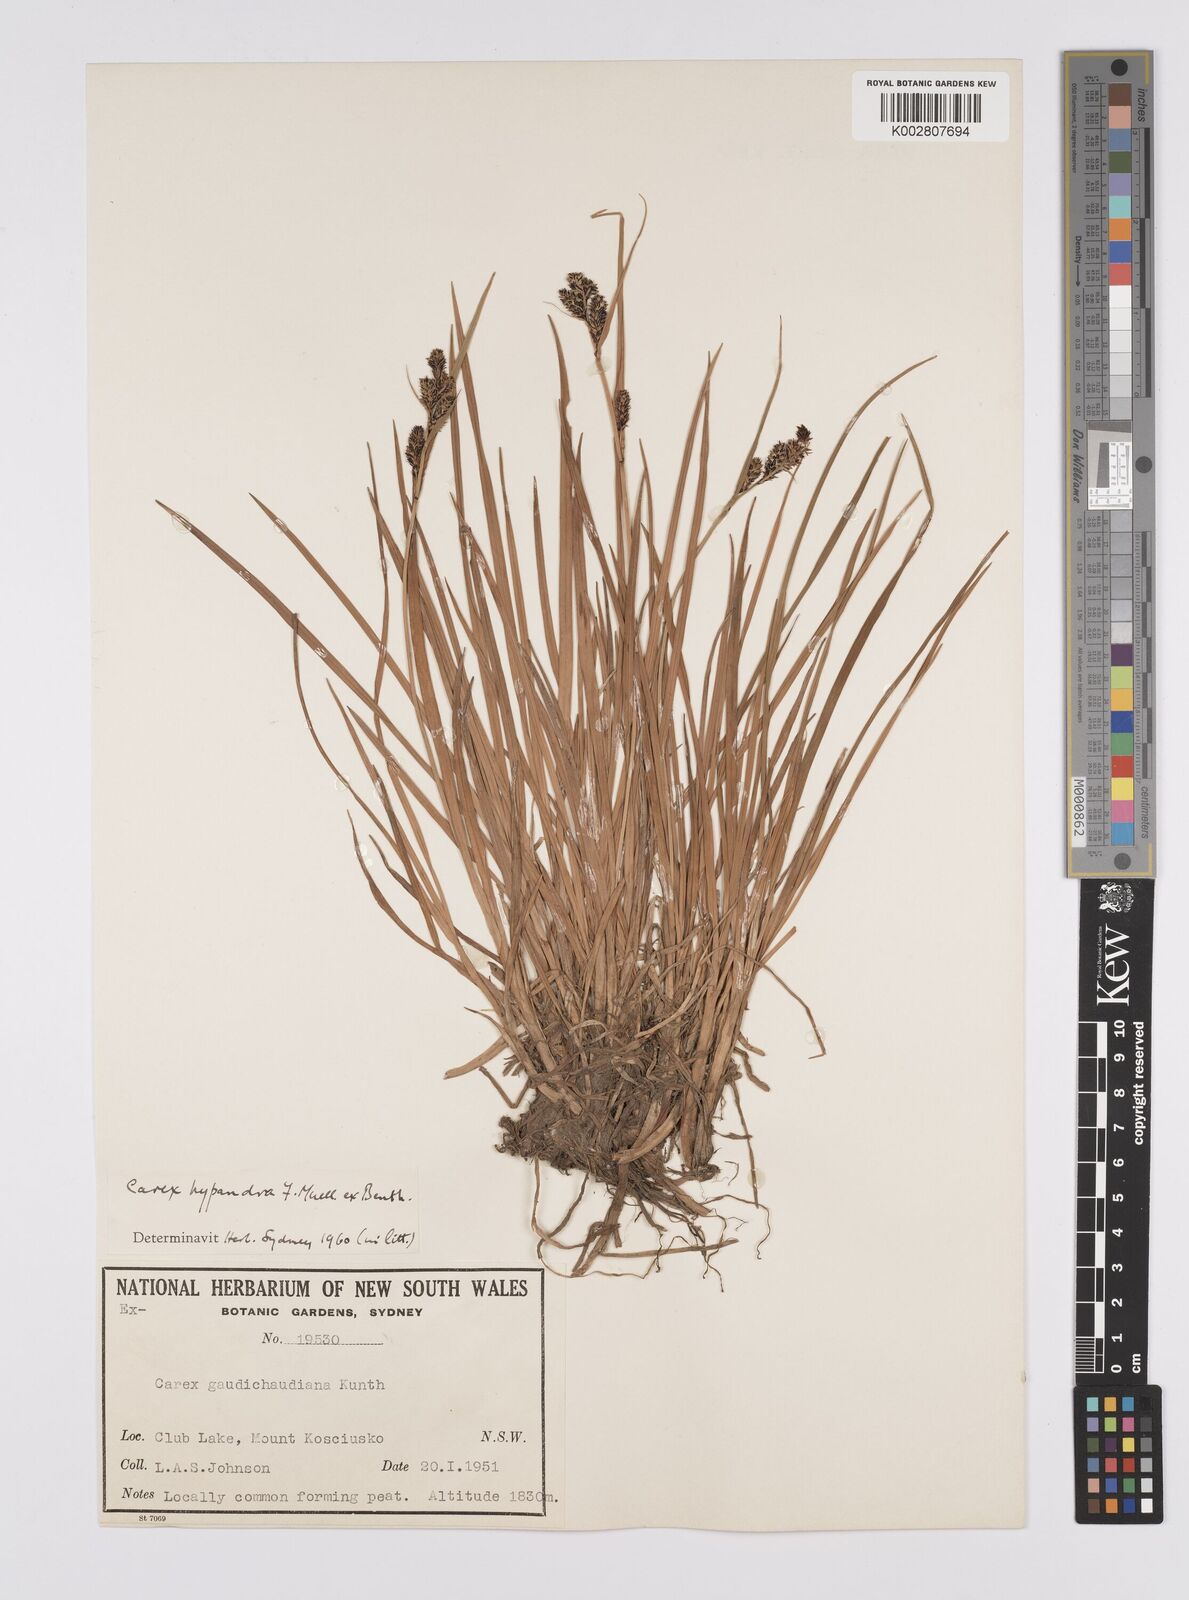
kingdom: Plantae
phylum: Tracheophyta
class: Liliopsida
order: Poales
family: Cyperaceae
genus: Carex
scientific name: Carex hypandra
